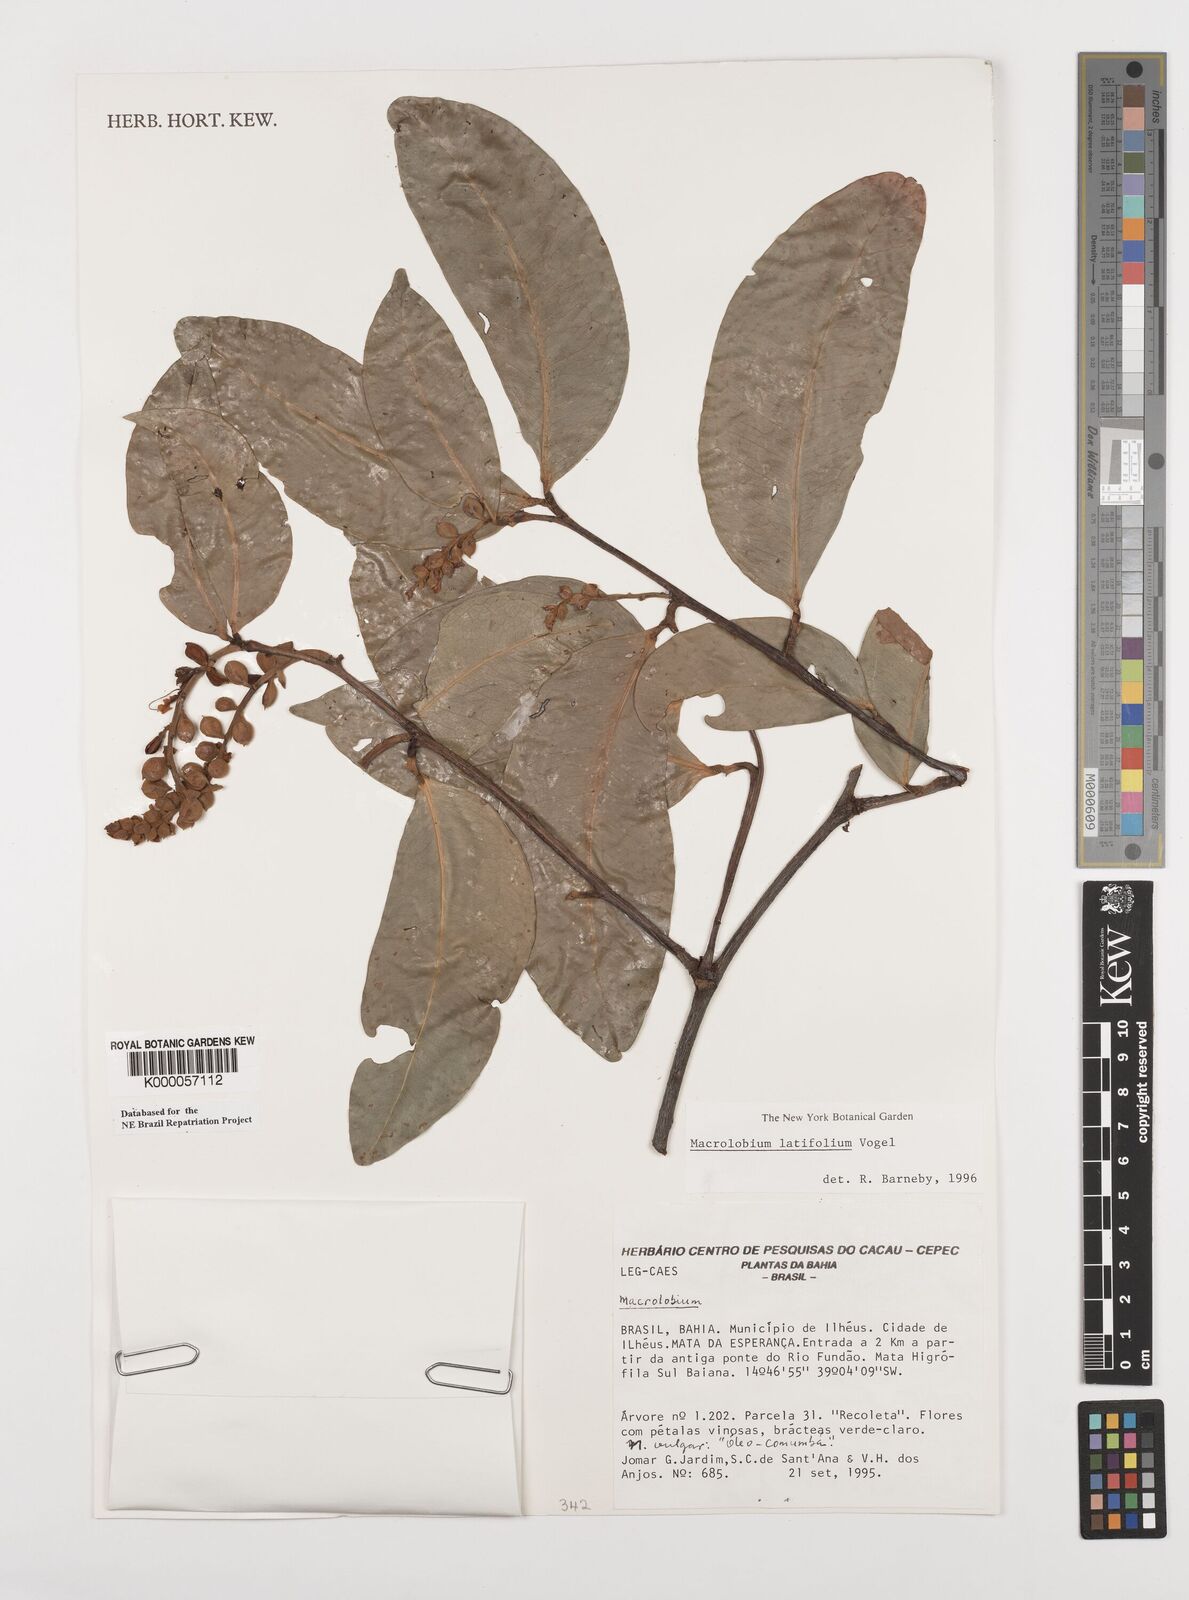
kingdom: Plantae
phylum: Tracheophyta
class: Magnoliopsida
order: Fabales
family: Fabaceae
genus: Macrolobium
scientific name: Macrolobium latifolium
